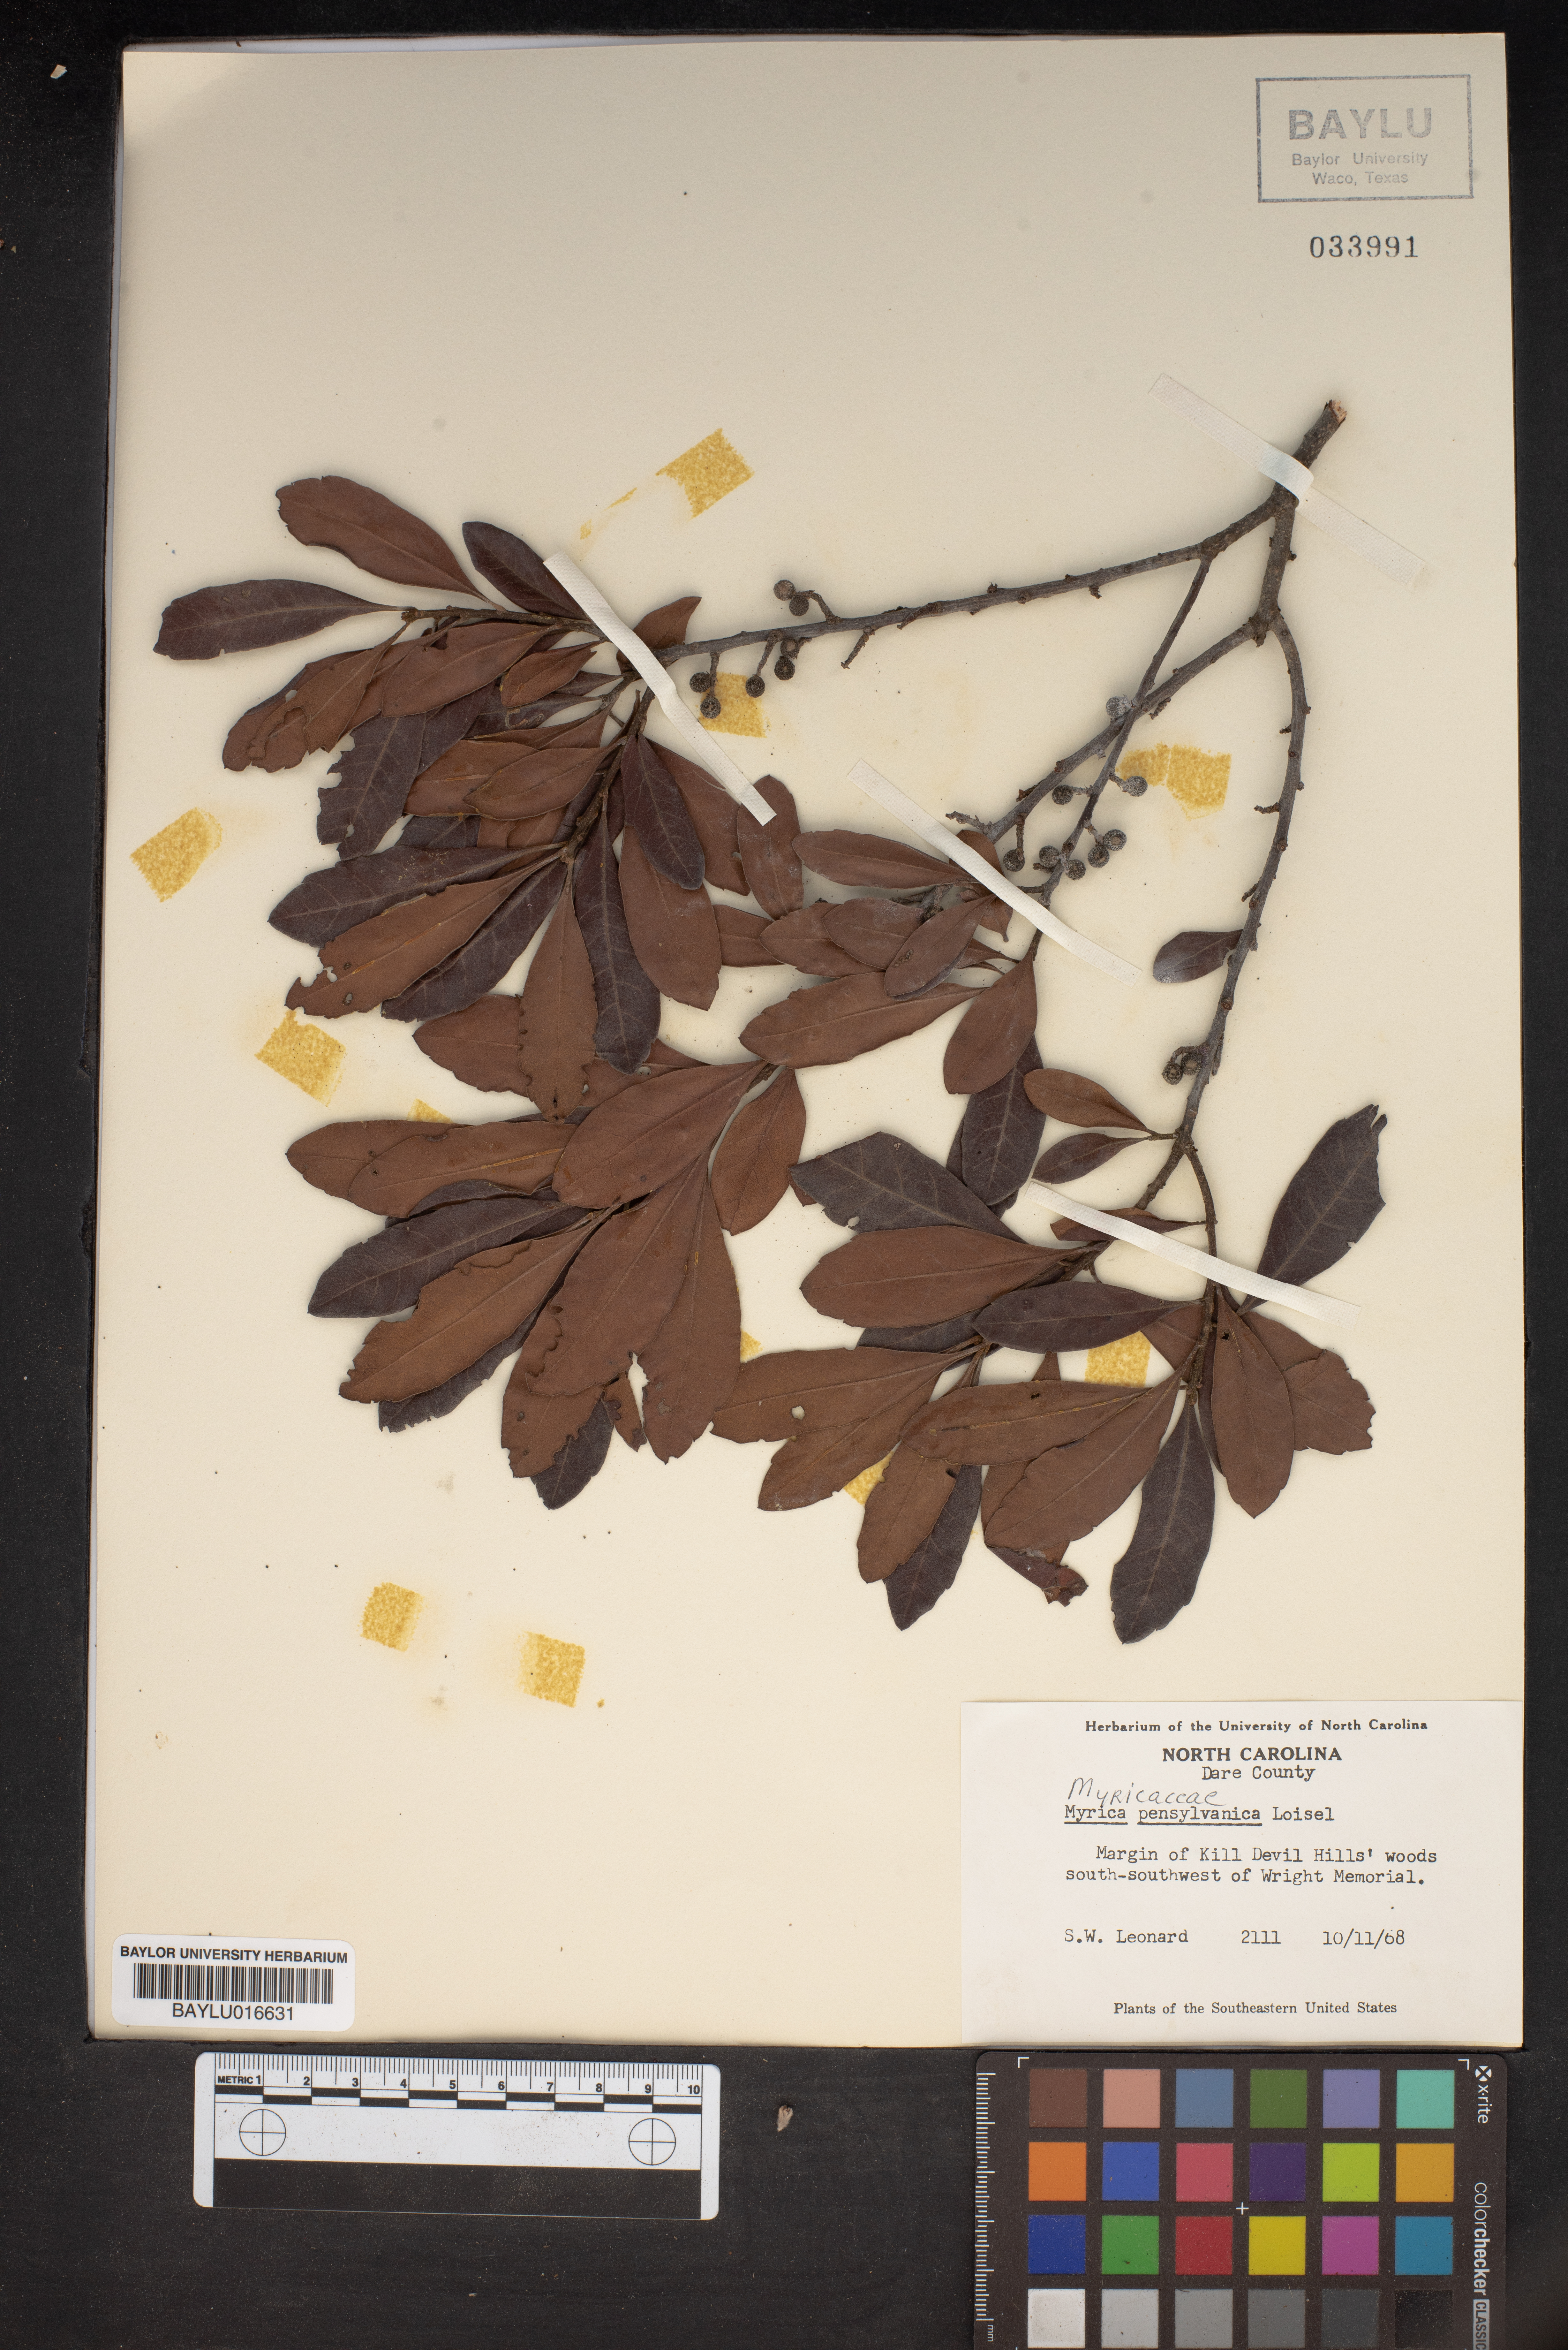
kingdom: Plantae
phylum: Tracheophyta
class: Magnoliopsida
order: Fagales
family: Myricaceae
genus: Morella
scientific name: Morella pensylvanica
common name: Northern bayberry
